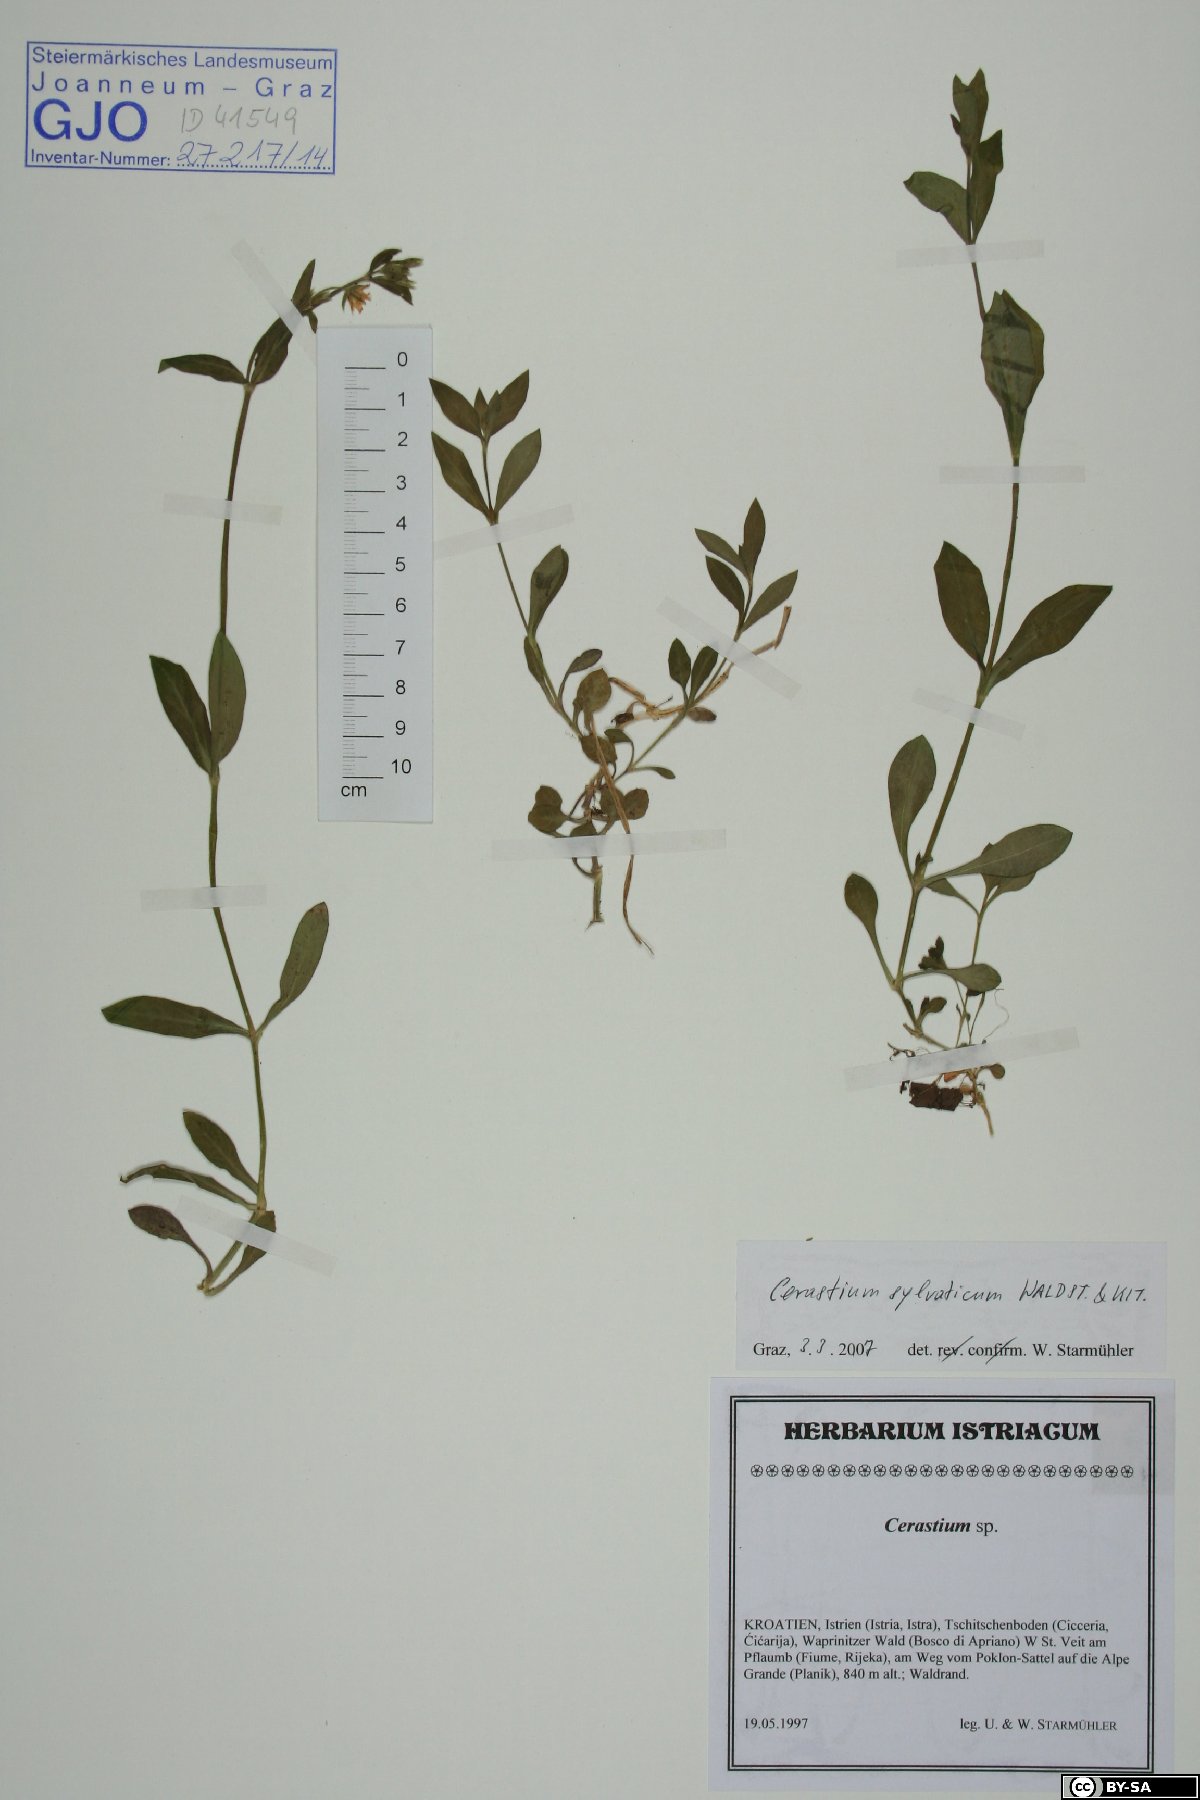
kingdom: Plantae
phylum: Tracheophyta
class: Magnoliopsida
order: Caryophyllales
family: Caryophyllaceae
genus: Cerastium
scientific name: Cerastium sylvaticum
